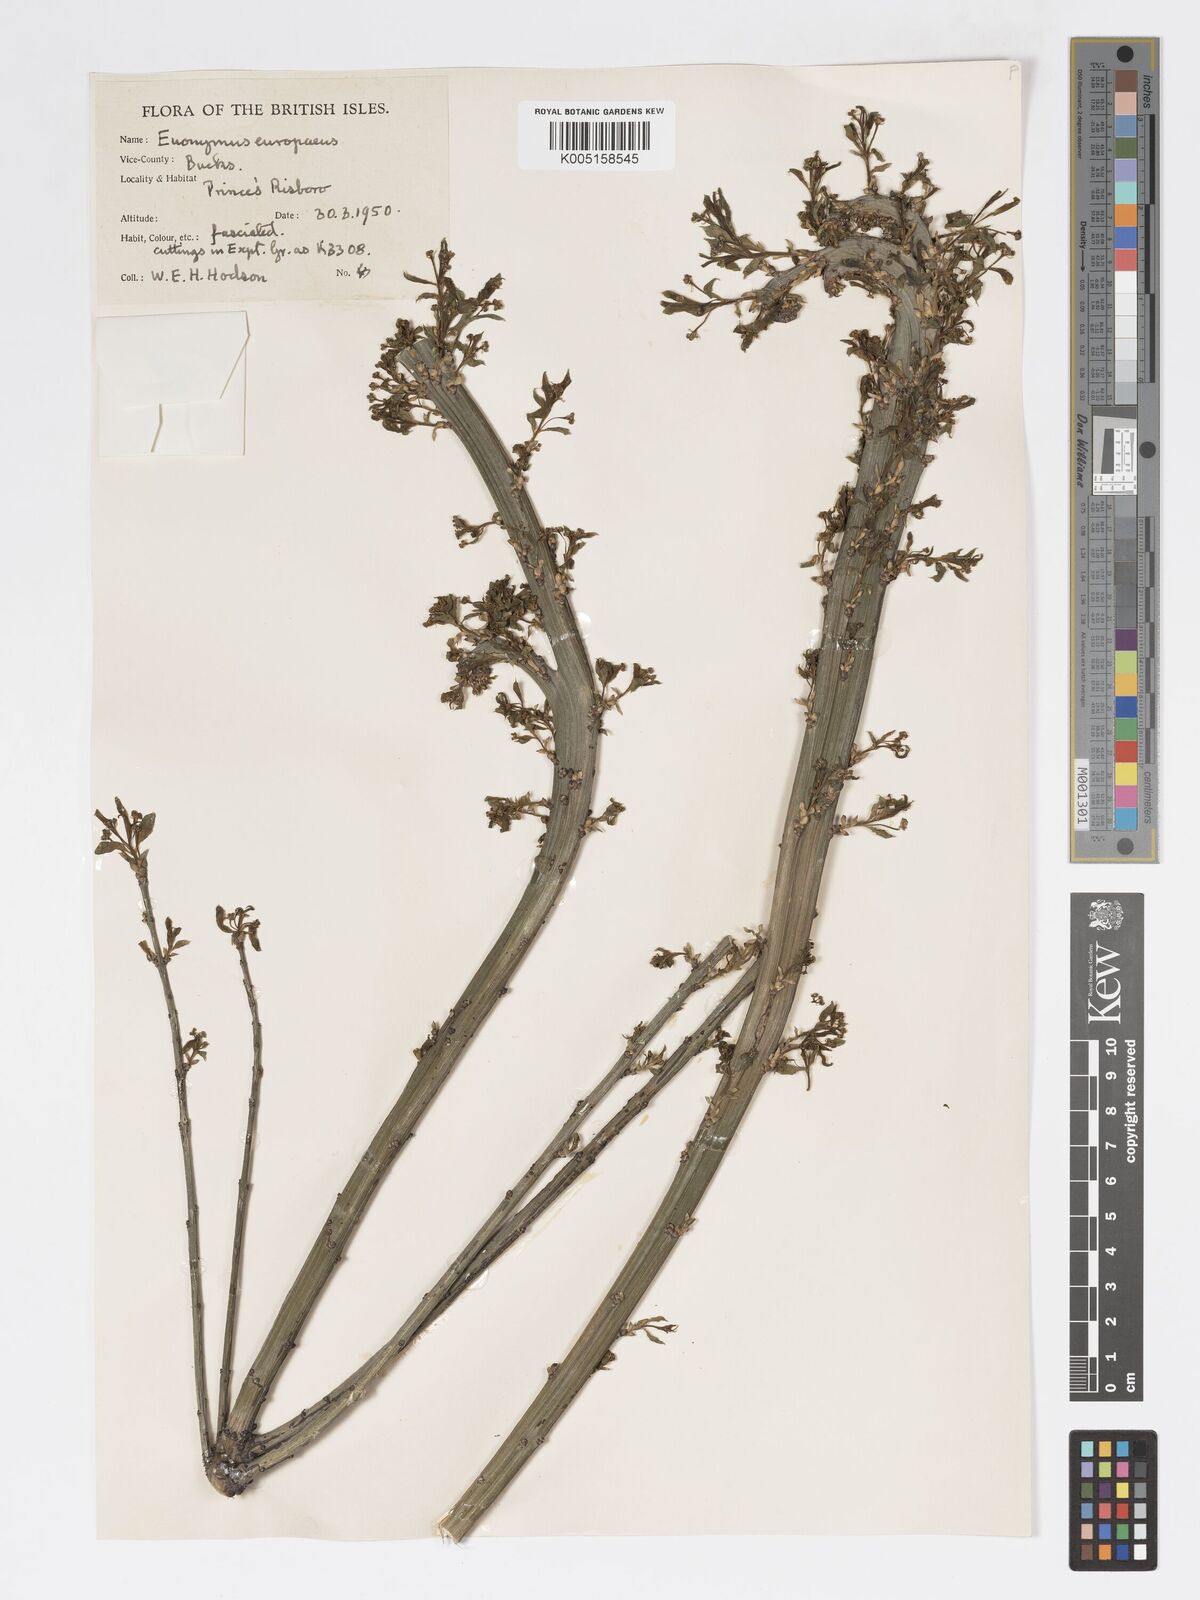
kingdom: Plantae
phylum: Tracheophyta
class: Magnoliopsida
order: Celastrales
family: Celastraceae
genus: Euonymus
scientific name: Euonymus
